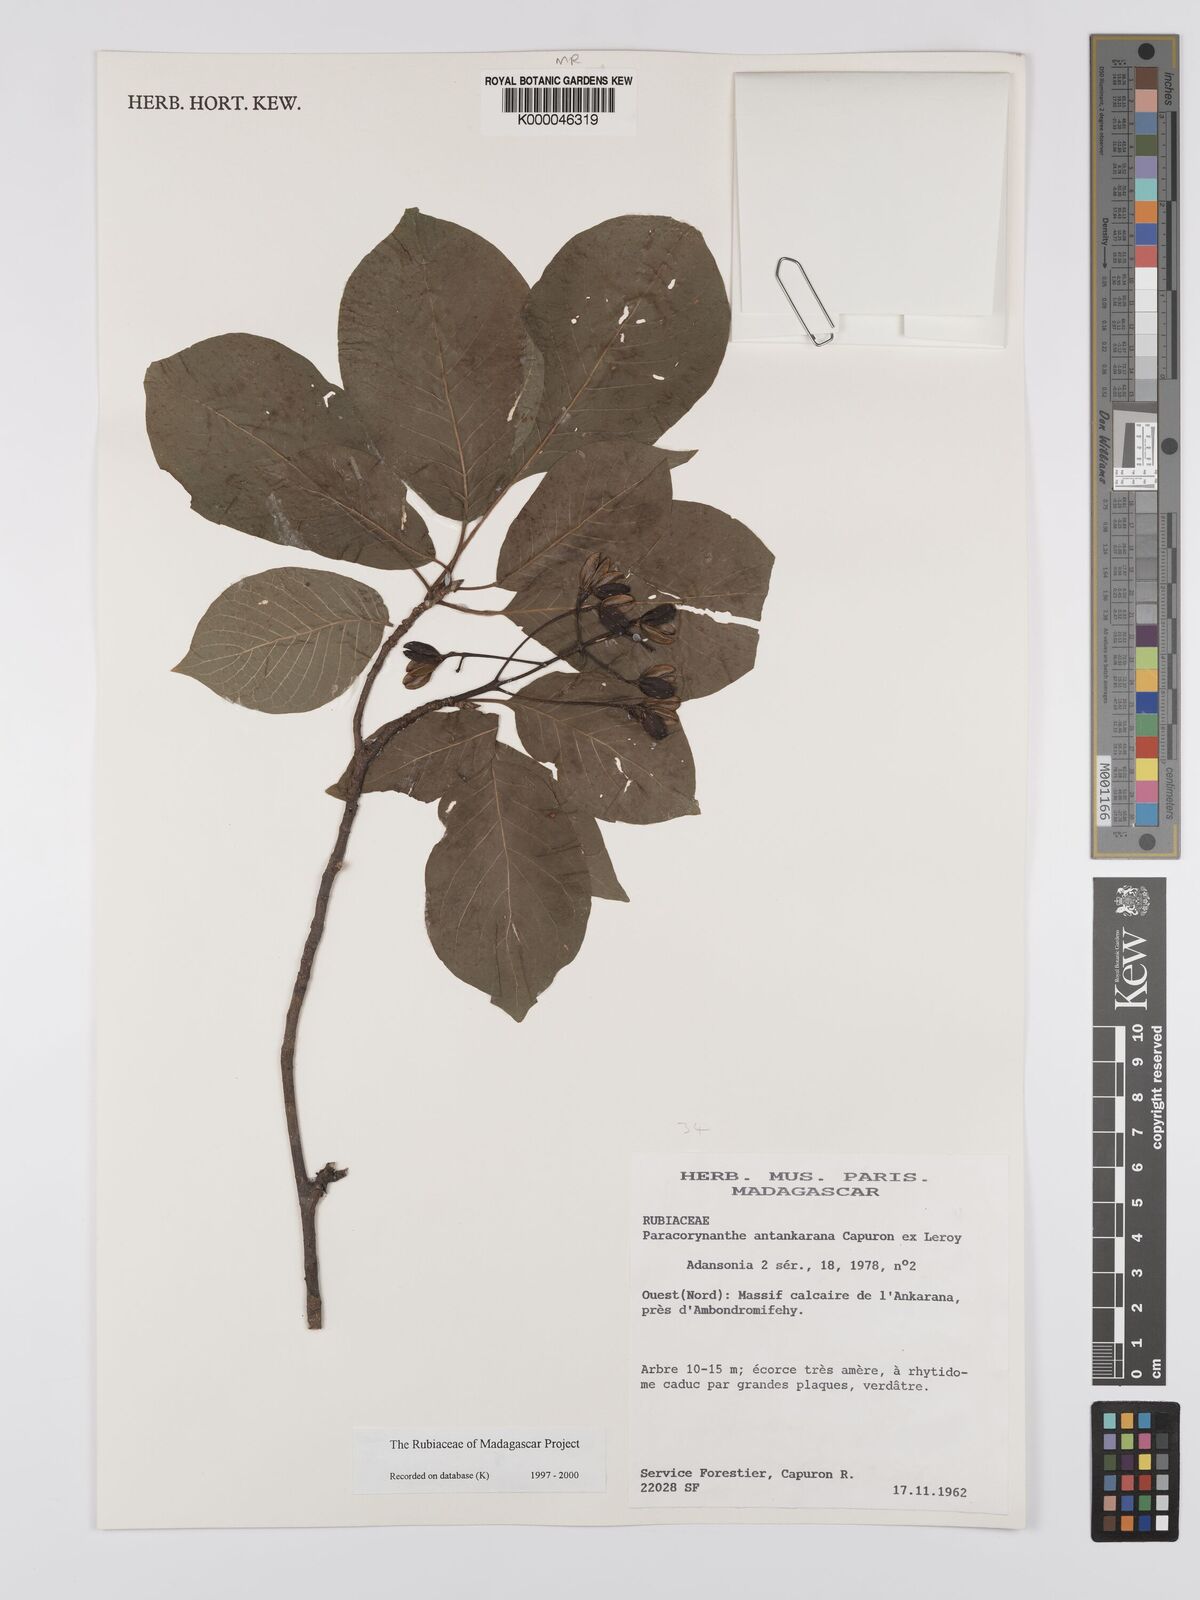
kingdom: Plantae
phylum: Tracheophyta
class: Magnoliopsida
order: Gentianales
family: Rubiaceae
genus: Paracorynanthe
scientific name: Paracorynanthe antankarana
